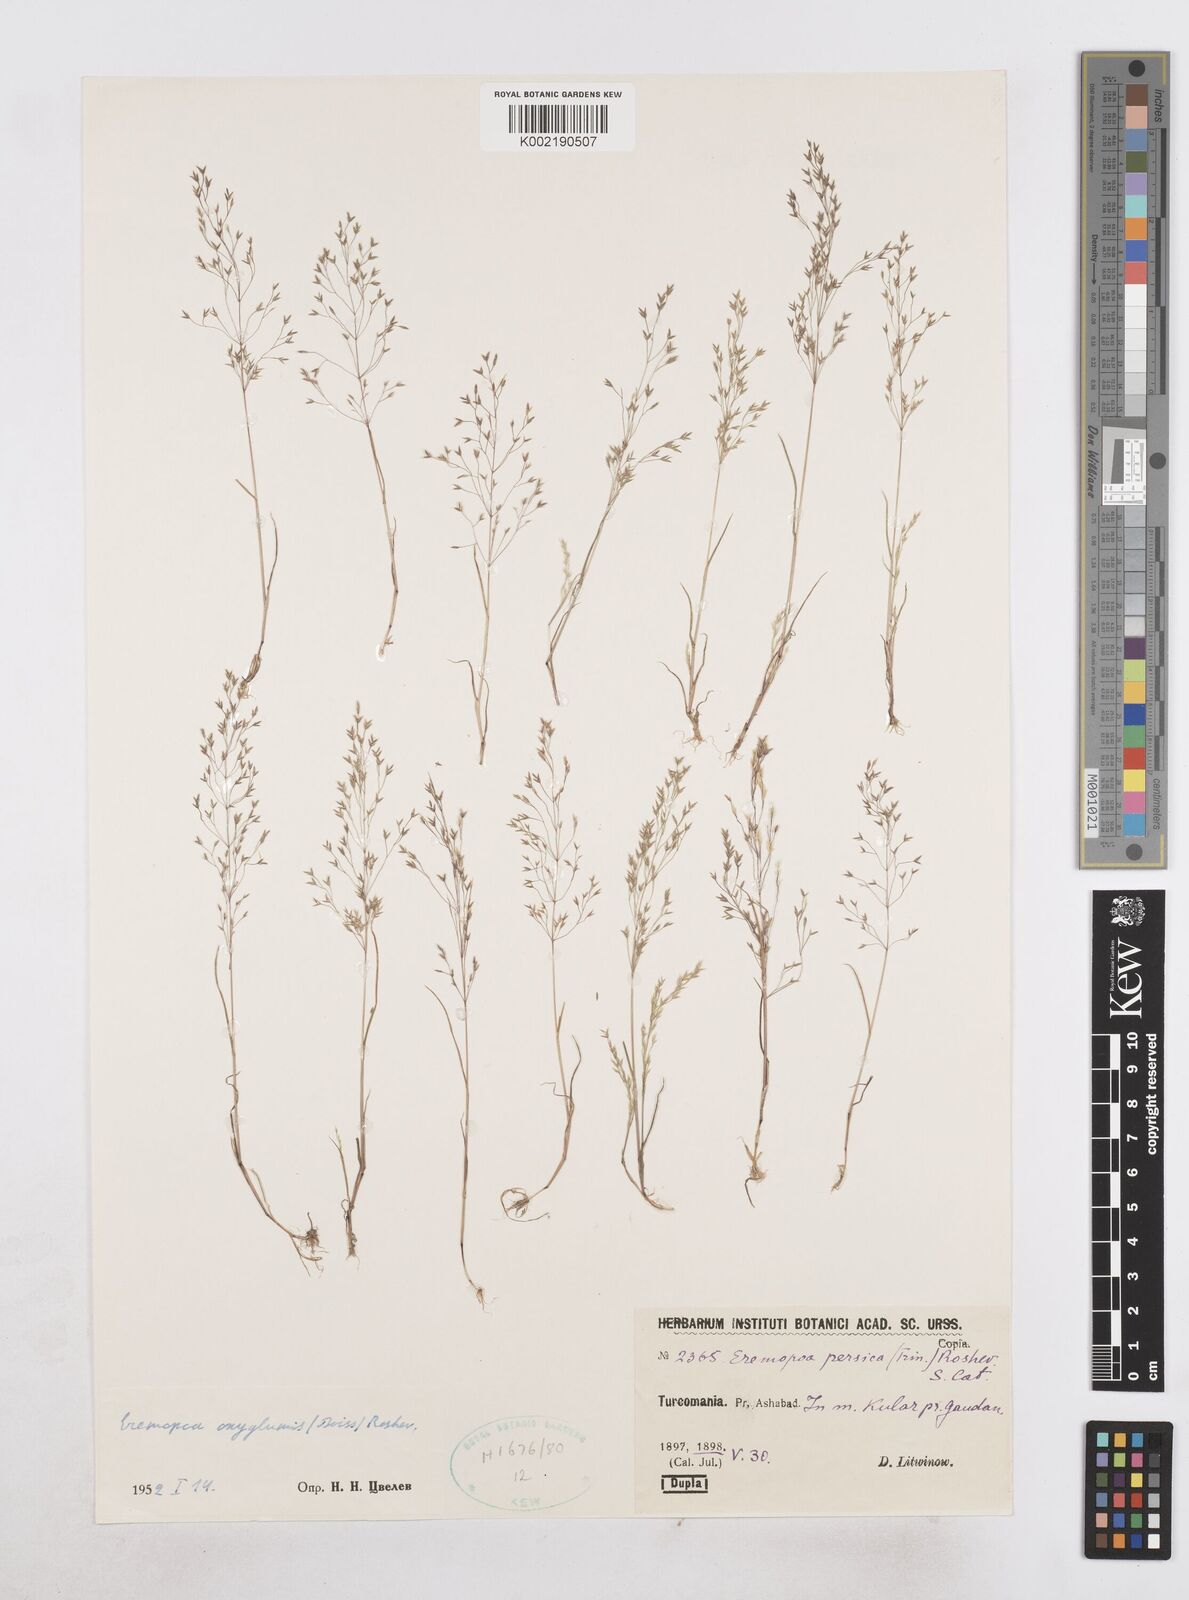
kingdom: Plantae
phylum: Tracheophyta
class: Liliopsida
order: Poales
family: Poaceae
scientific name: Poaceae
